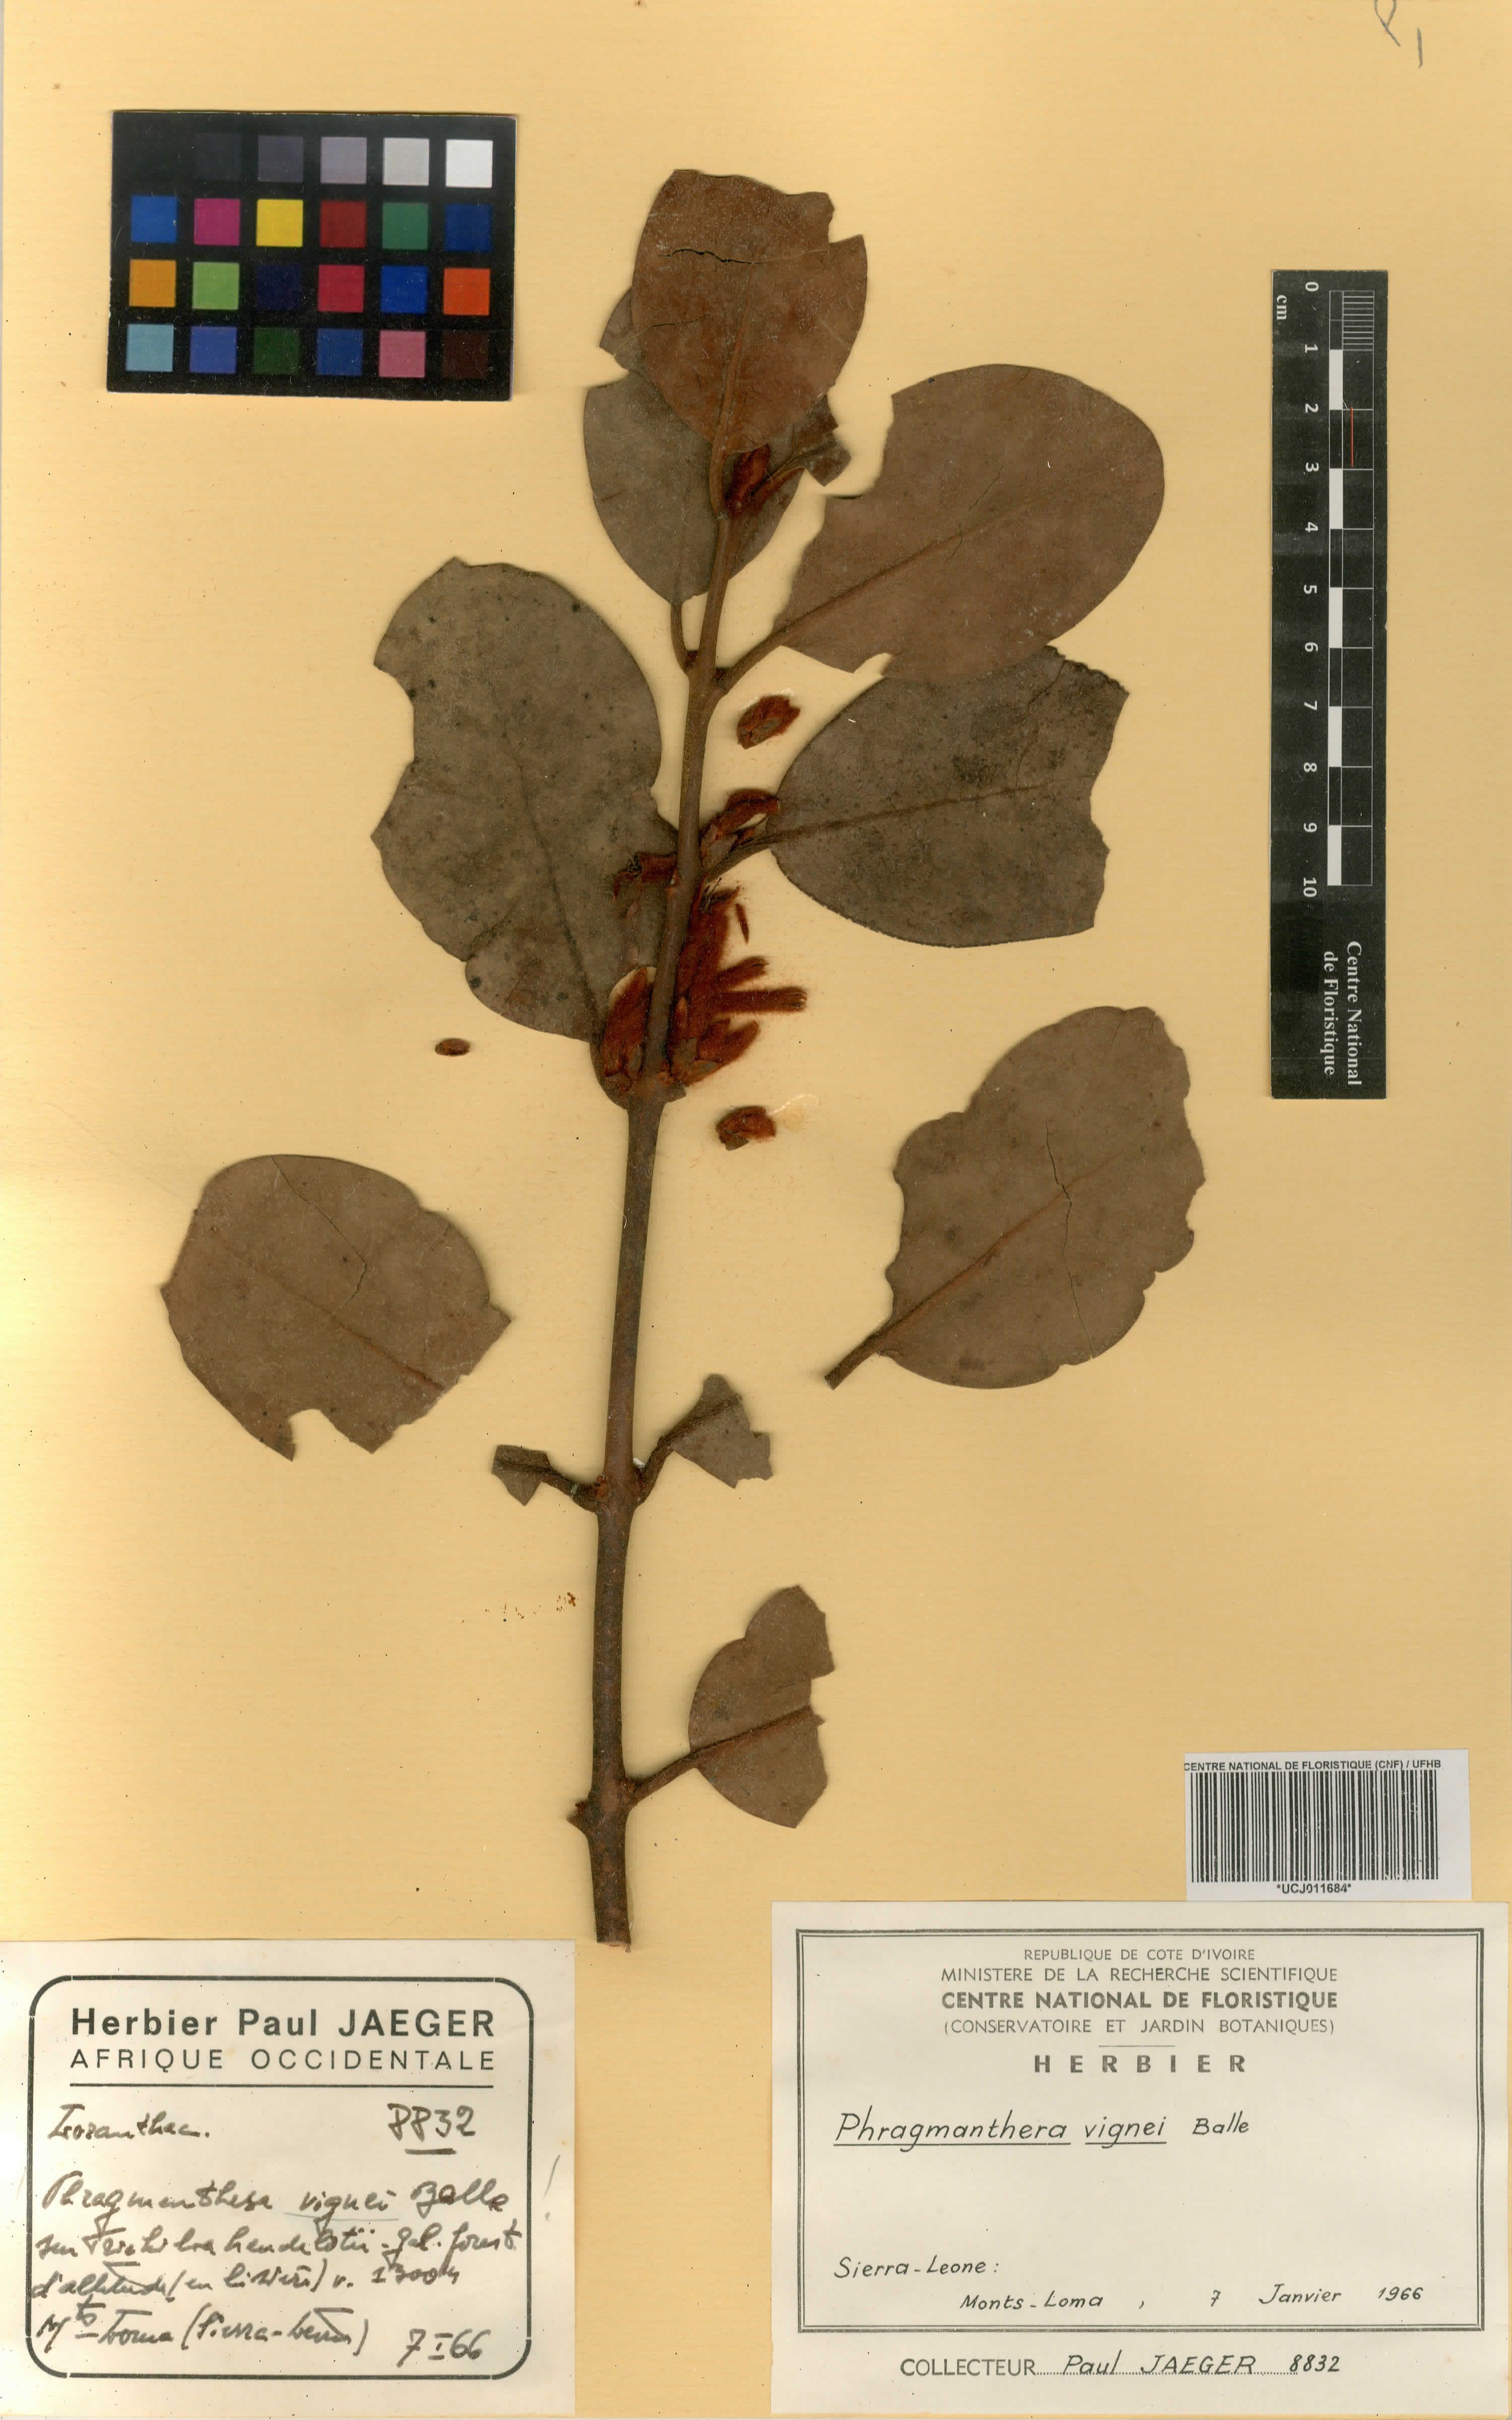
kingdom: Plantae
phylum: Tracheophyta
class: Magnoliopsida
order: Santalales
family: Loranthaceae
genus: Phragmanthera
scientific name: Phragmanthera vignei
